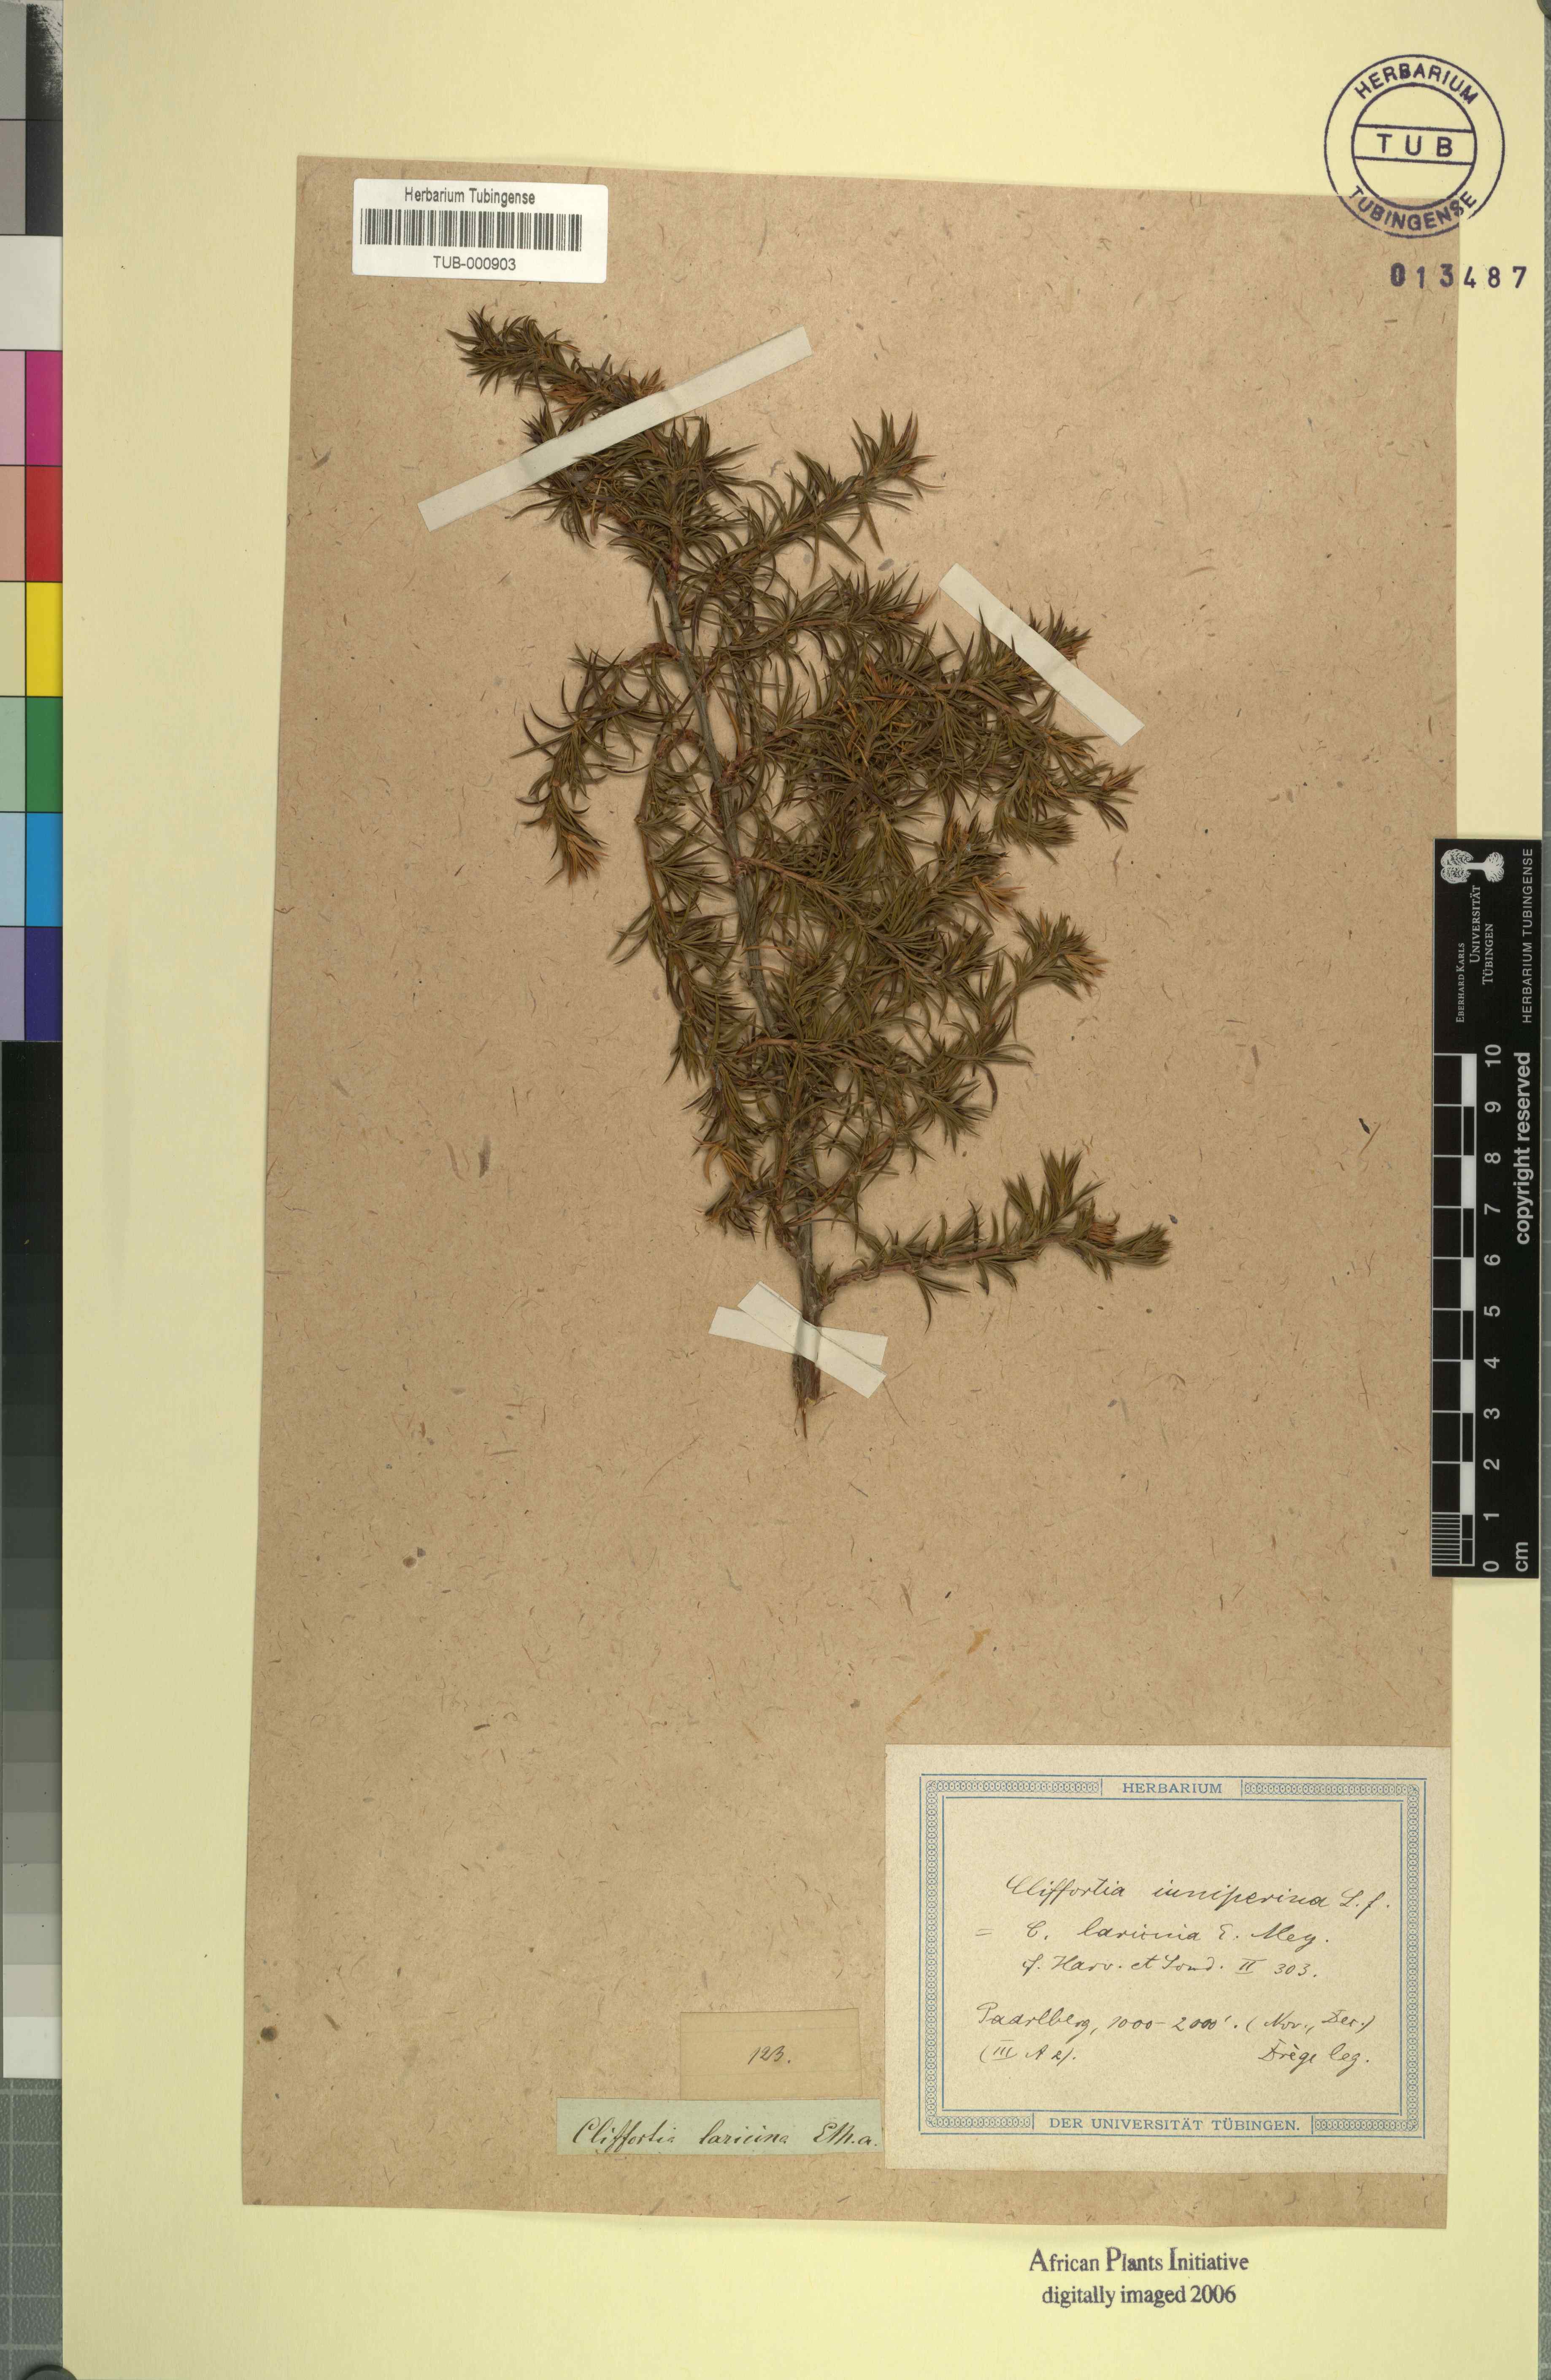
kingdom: Plantae
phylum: Tracheophyta
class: Magnoliopsida
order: Rosales
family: Rosaceae
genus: Cliffortia
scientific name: Cliffortia juniperina
